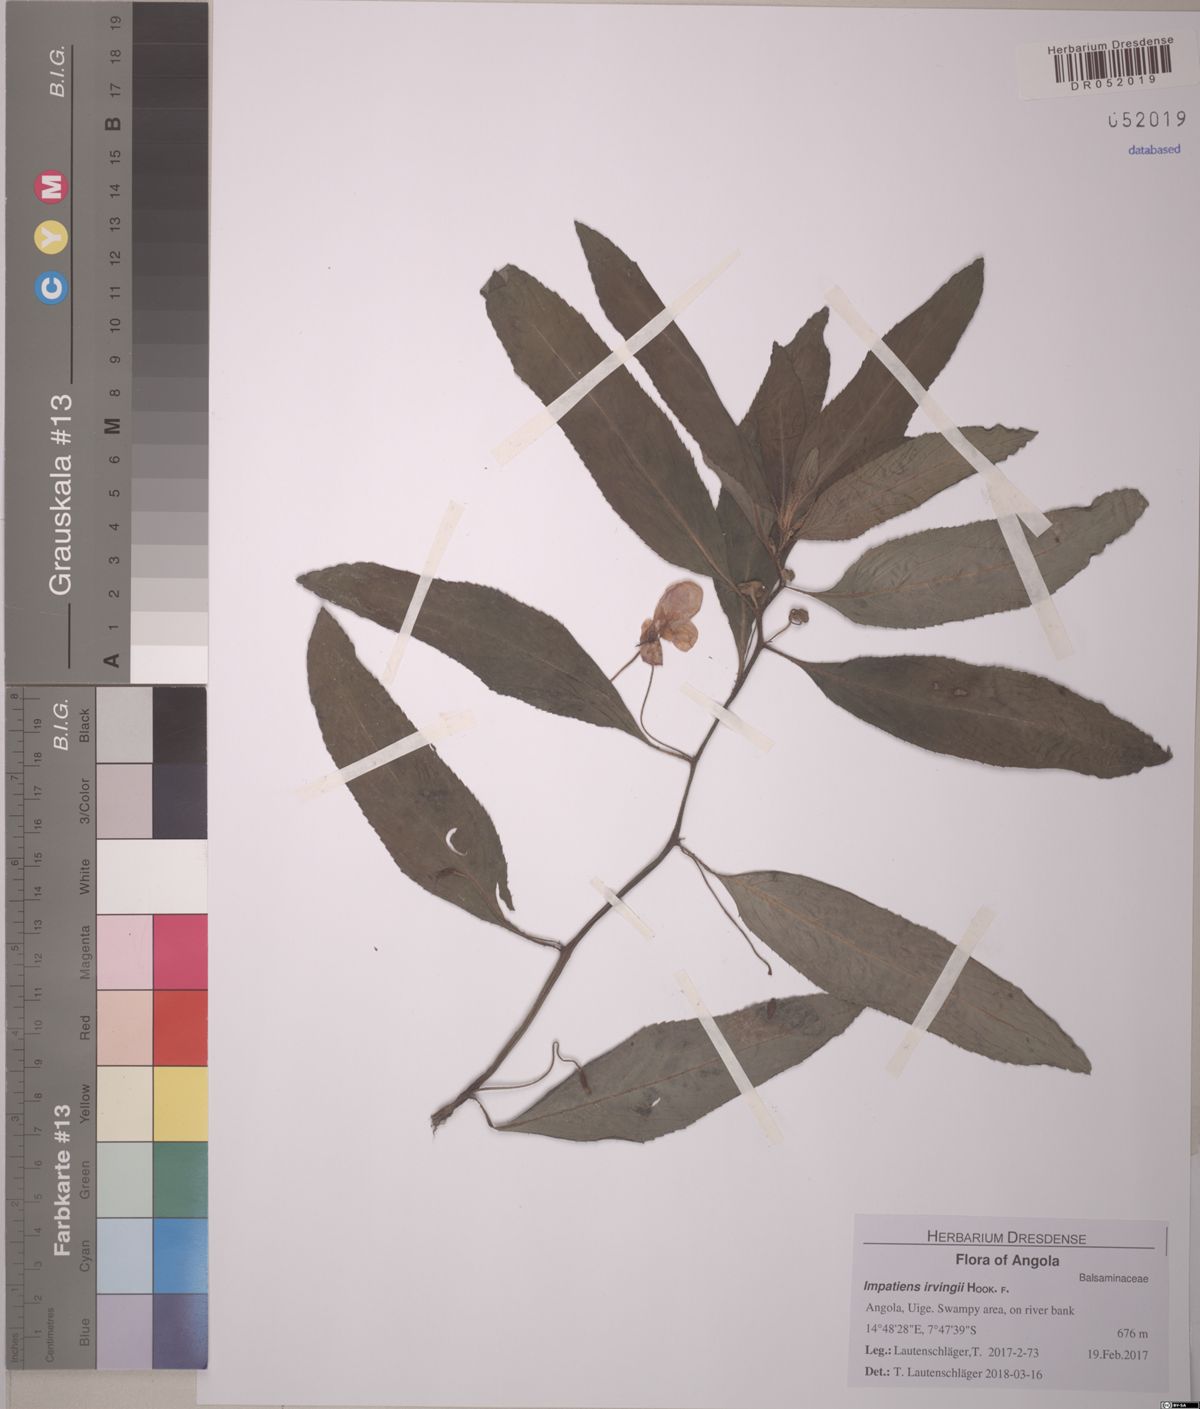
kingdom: Plantae
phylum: Tracheophyta
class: Magnoliopsida
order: Ericales
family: Balsaminaceae
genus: Impatiens
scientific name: Impatiens irvingii
